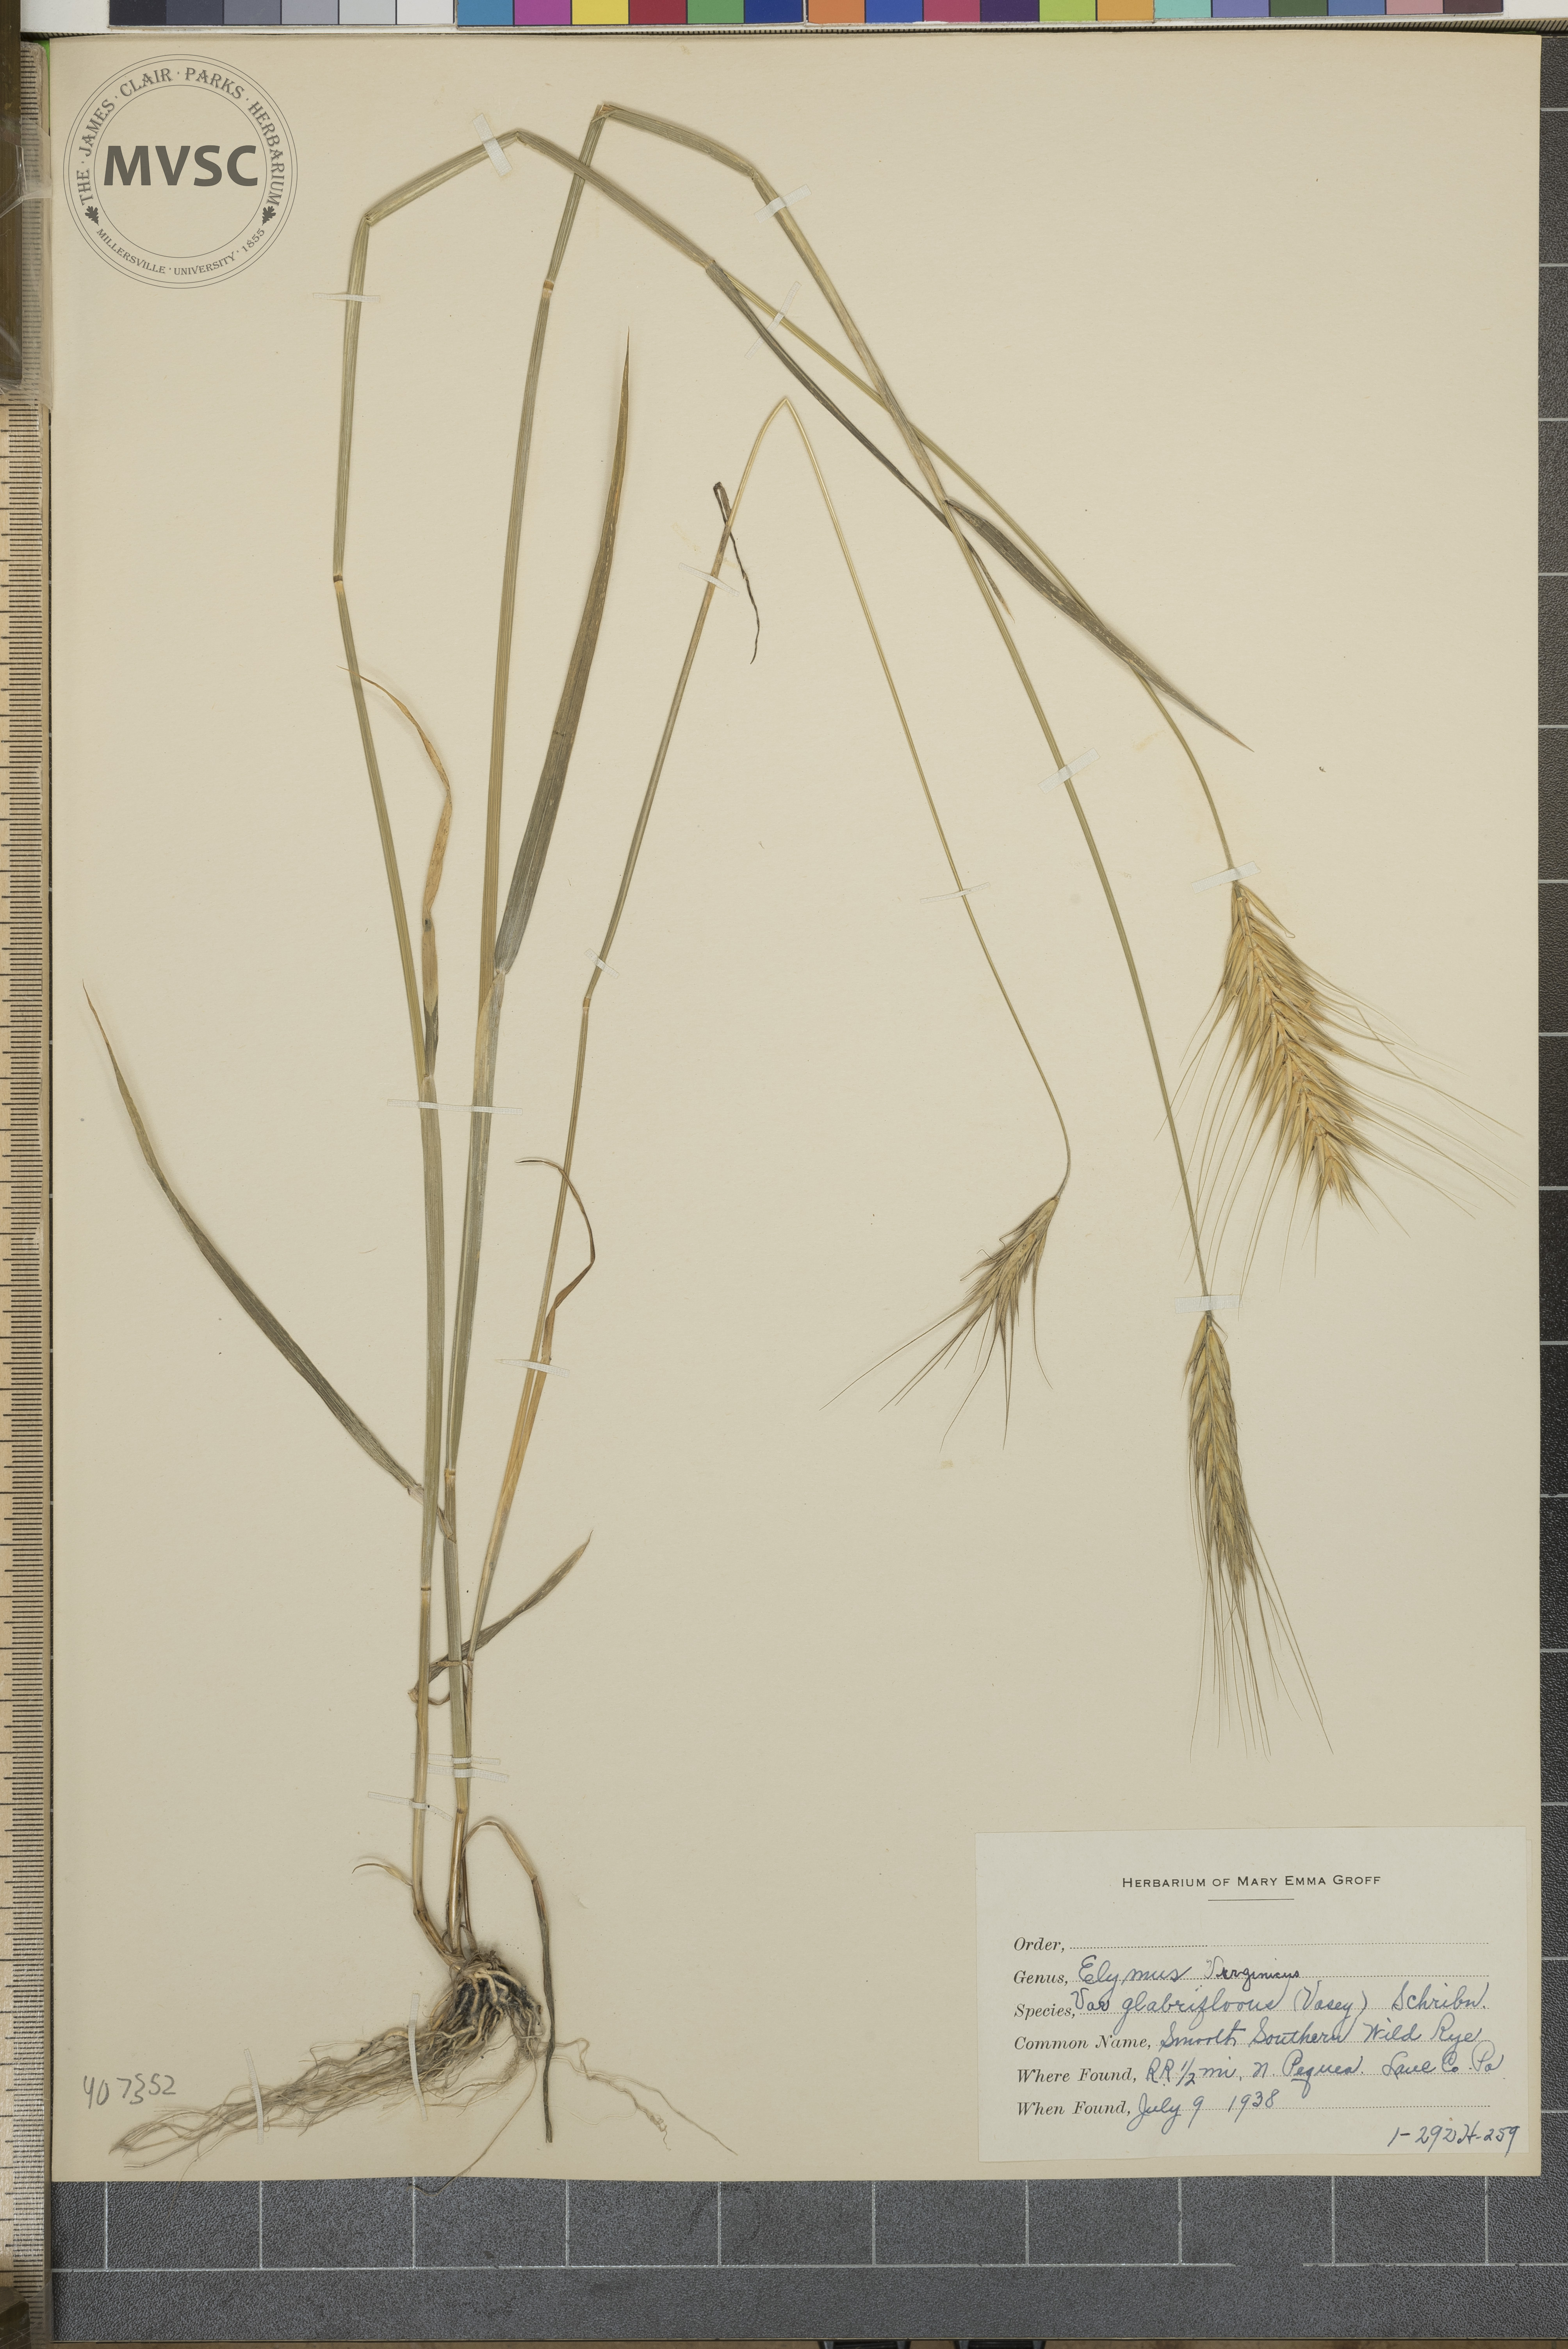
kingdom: Plantae
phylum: Tracheophyta
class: Liliopsida
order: Poales
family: Poaceae
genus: Secale
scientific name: Secale cereale
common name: rye
